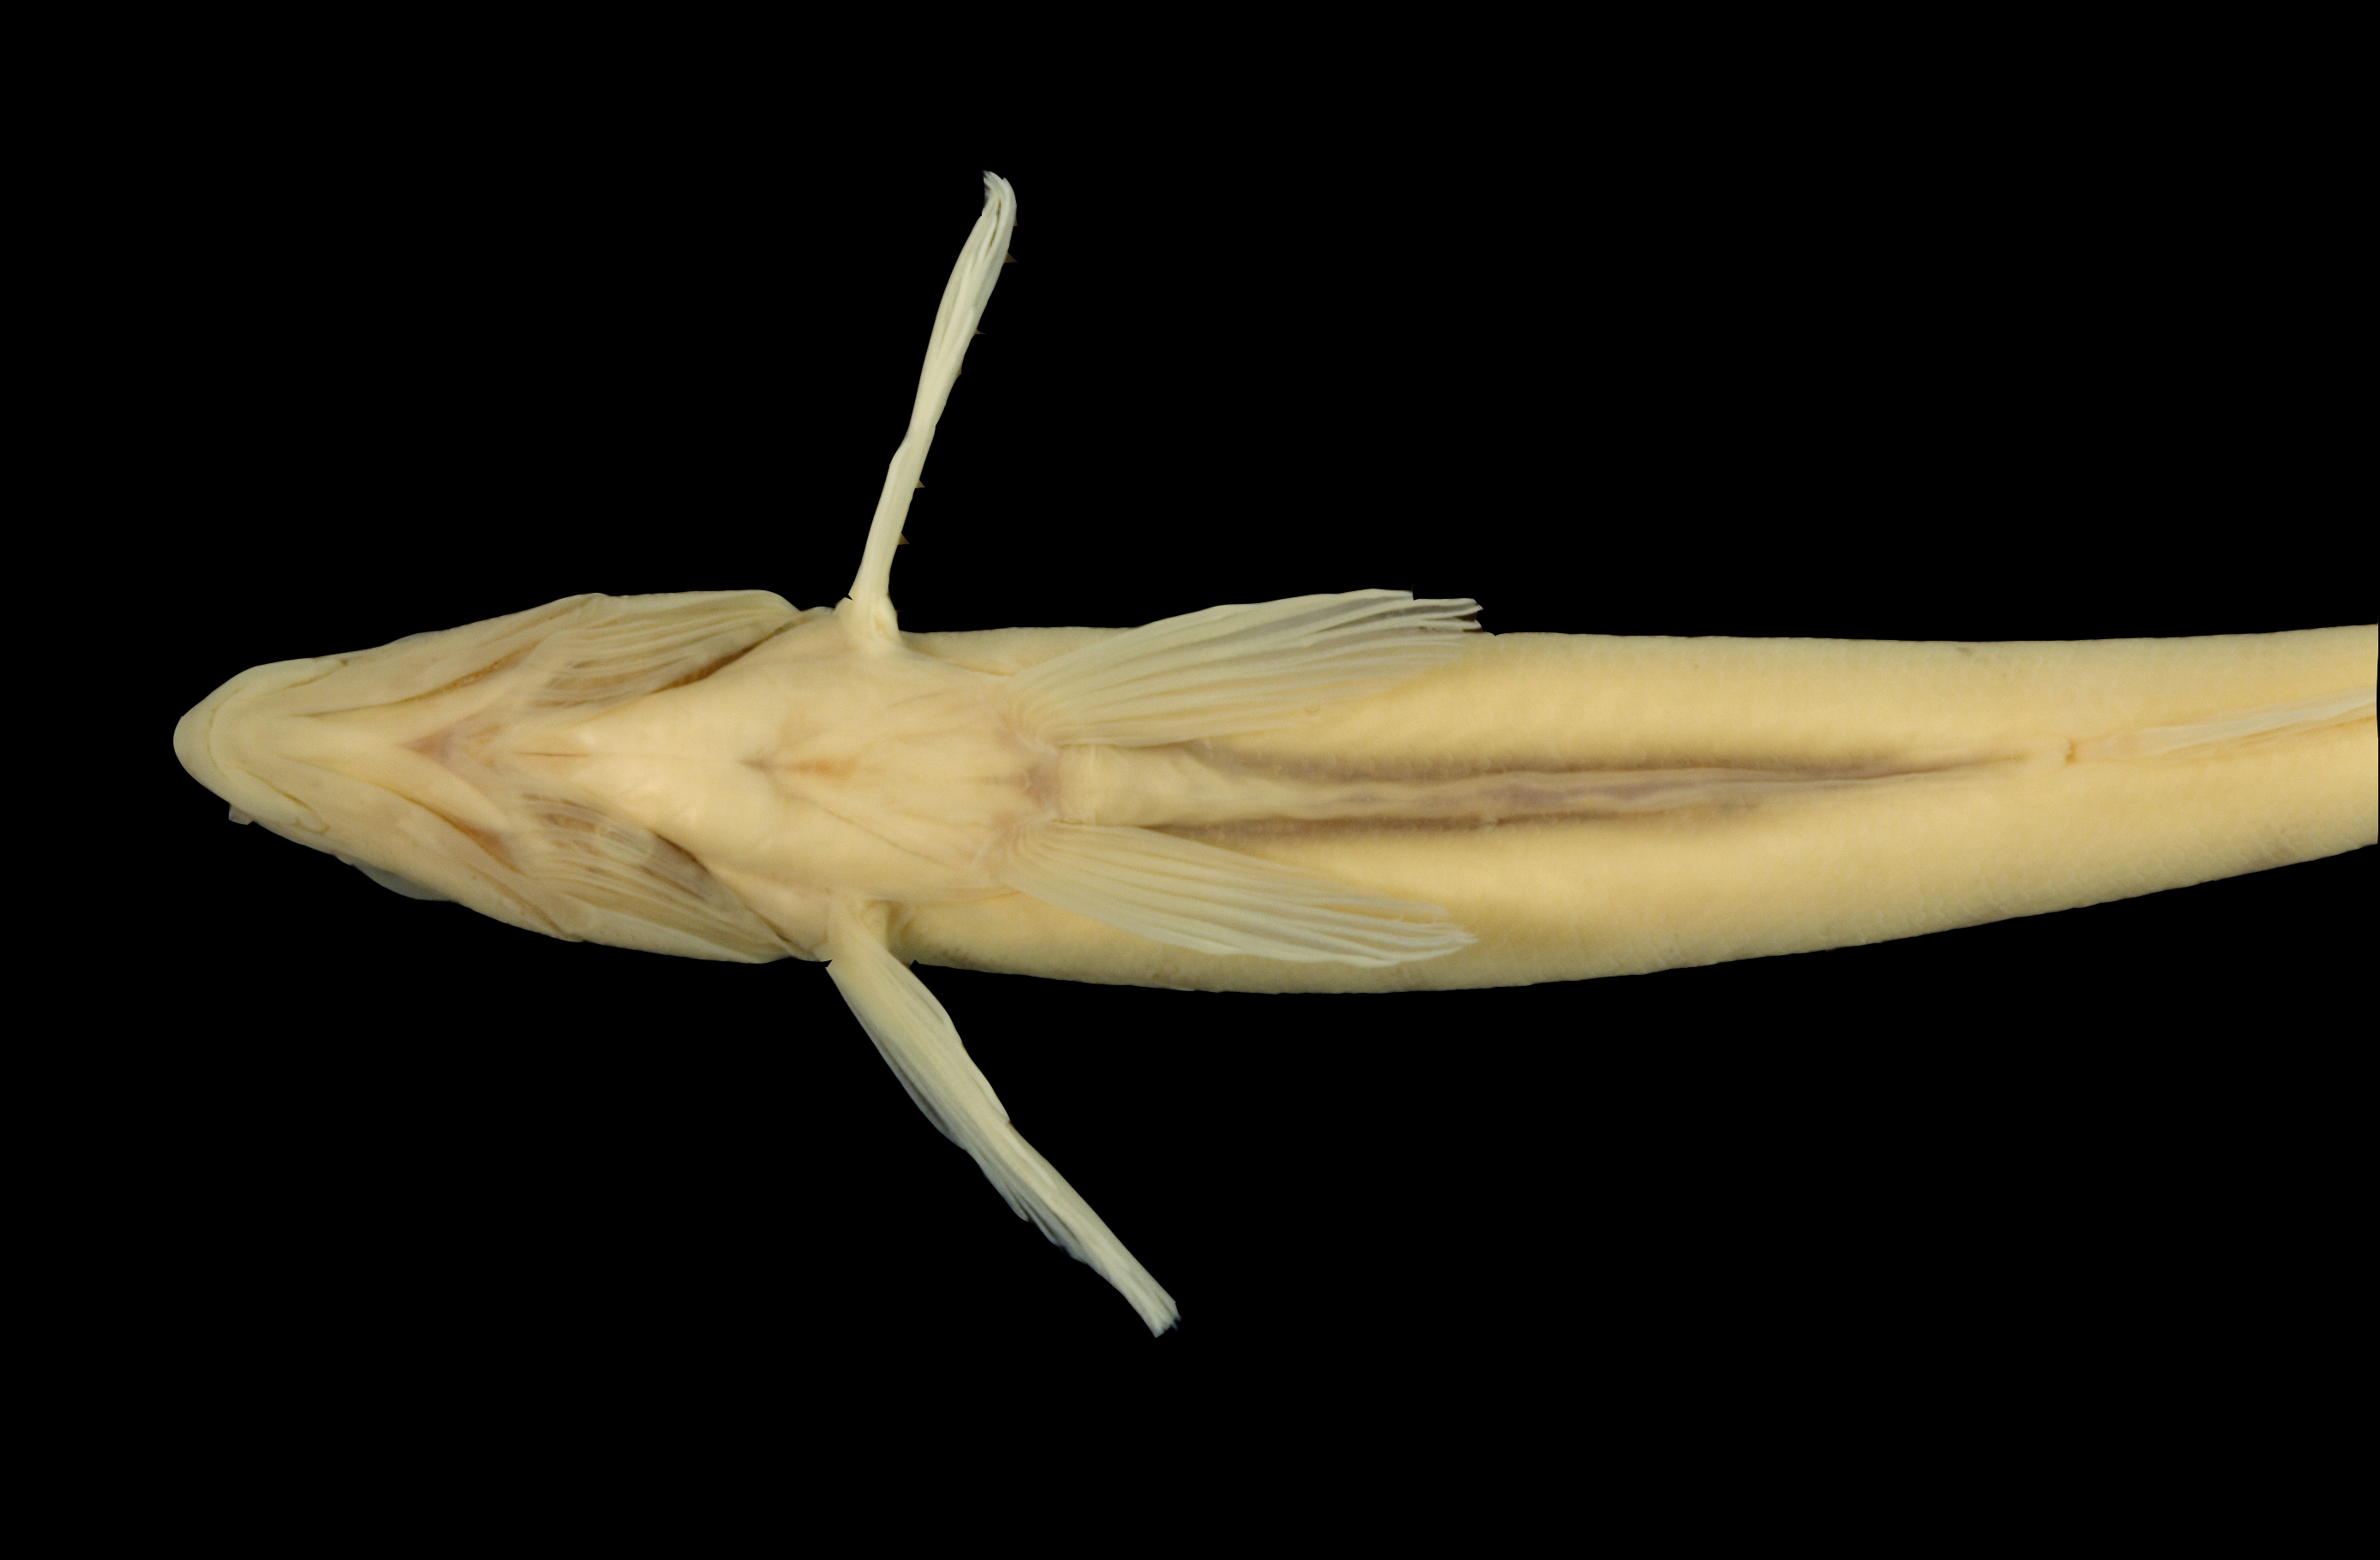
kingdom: Animalia
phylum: Chordata
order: Perciformes
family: Percidae
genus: Percina
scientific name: Percina macrolepida
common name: Bigscale logperch
